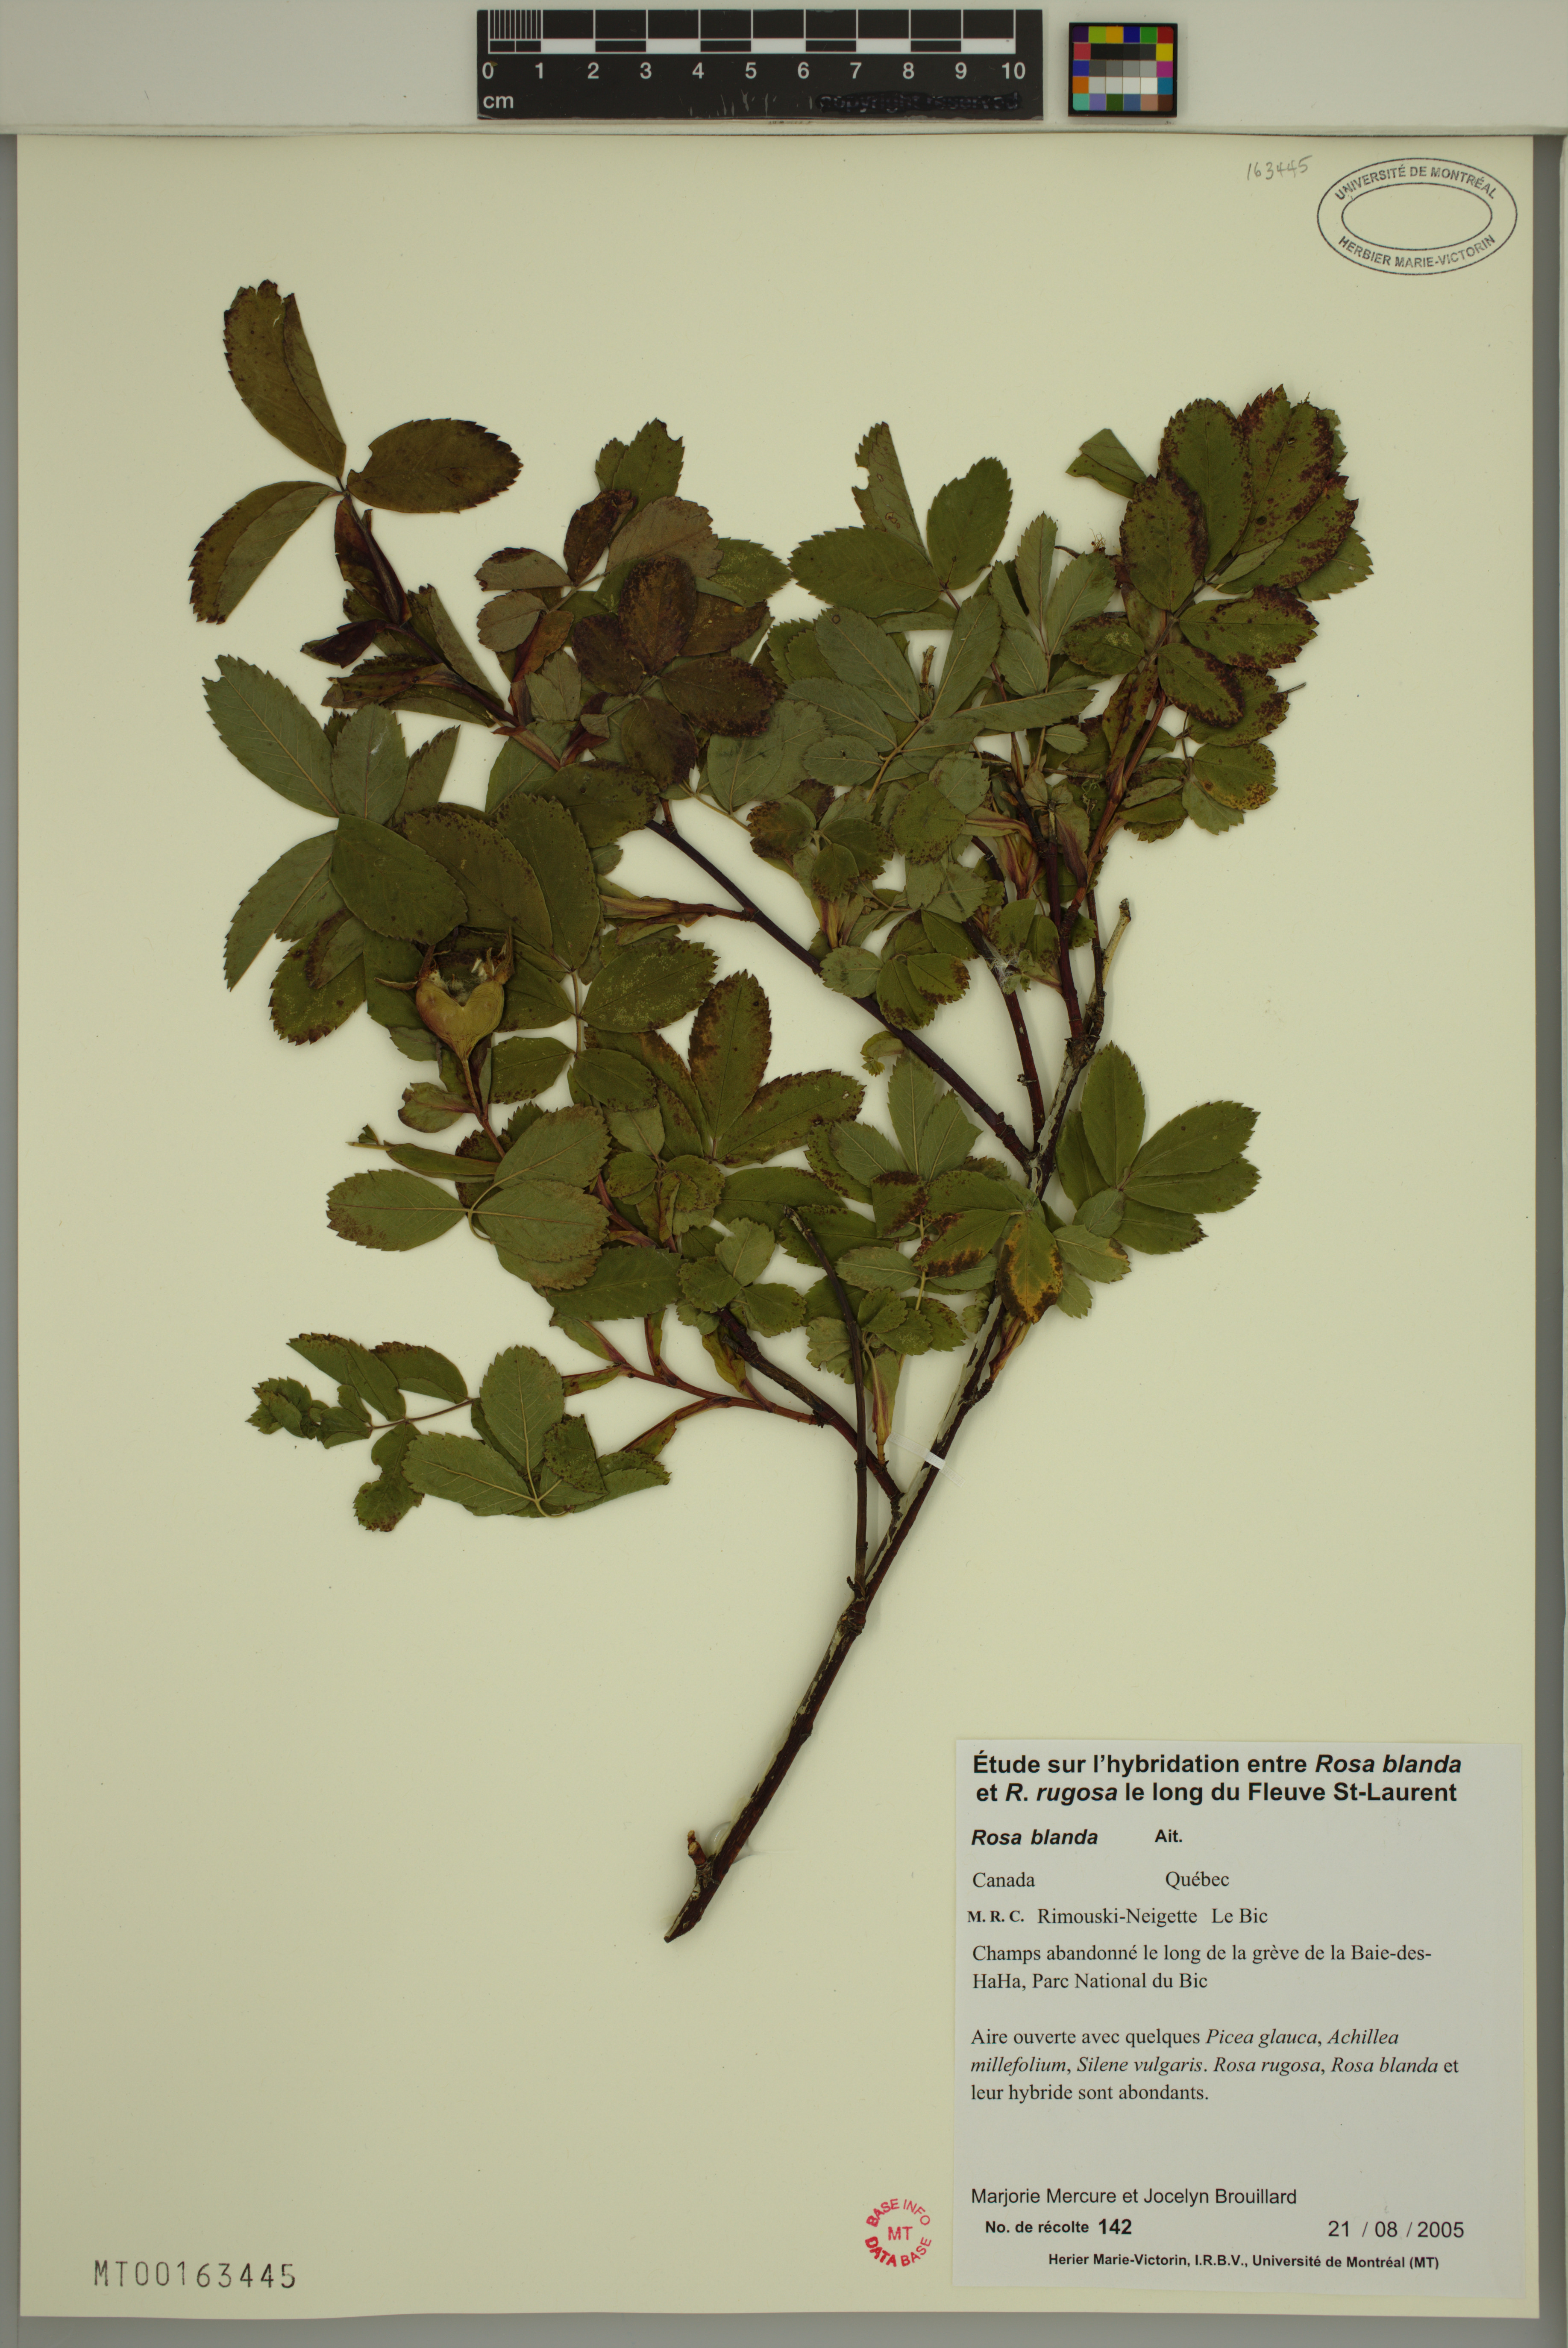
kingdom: Plantae
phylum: Tracheophyta
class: Magnoliopsida
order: Rosales
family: Rosaceae
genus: Rosa
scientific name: Rosa blanda
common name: Smooth rose
